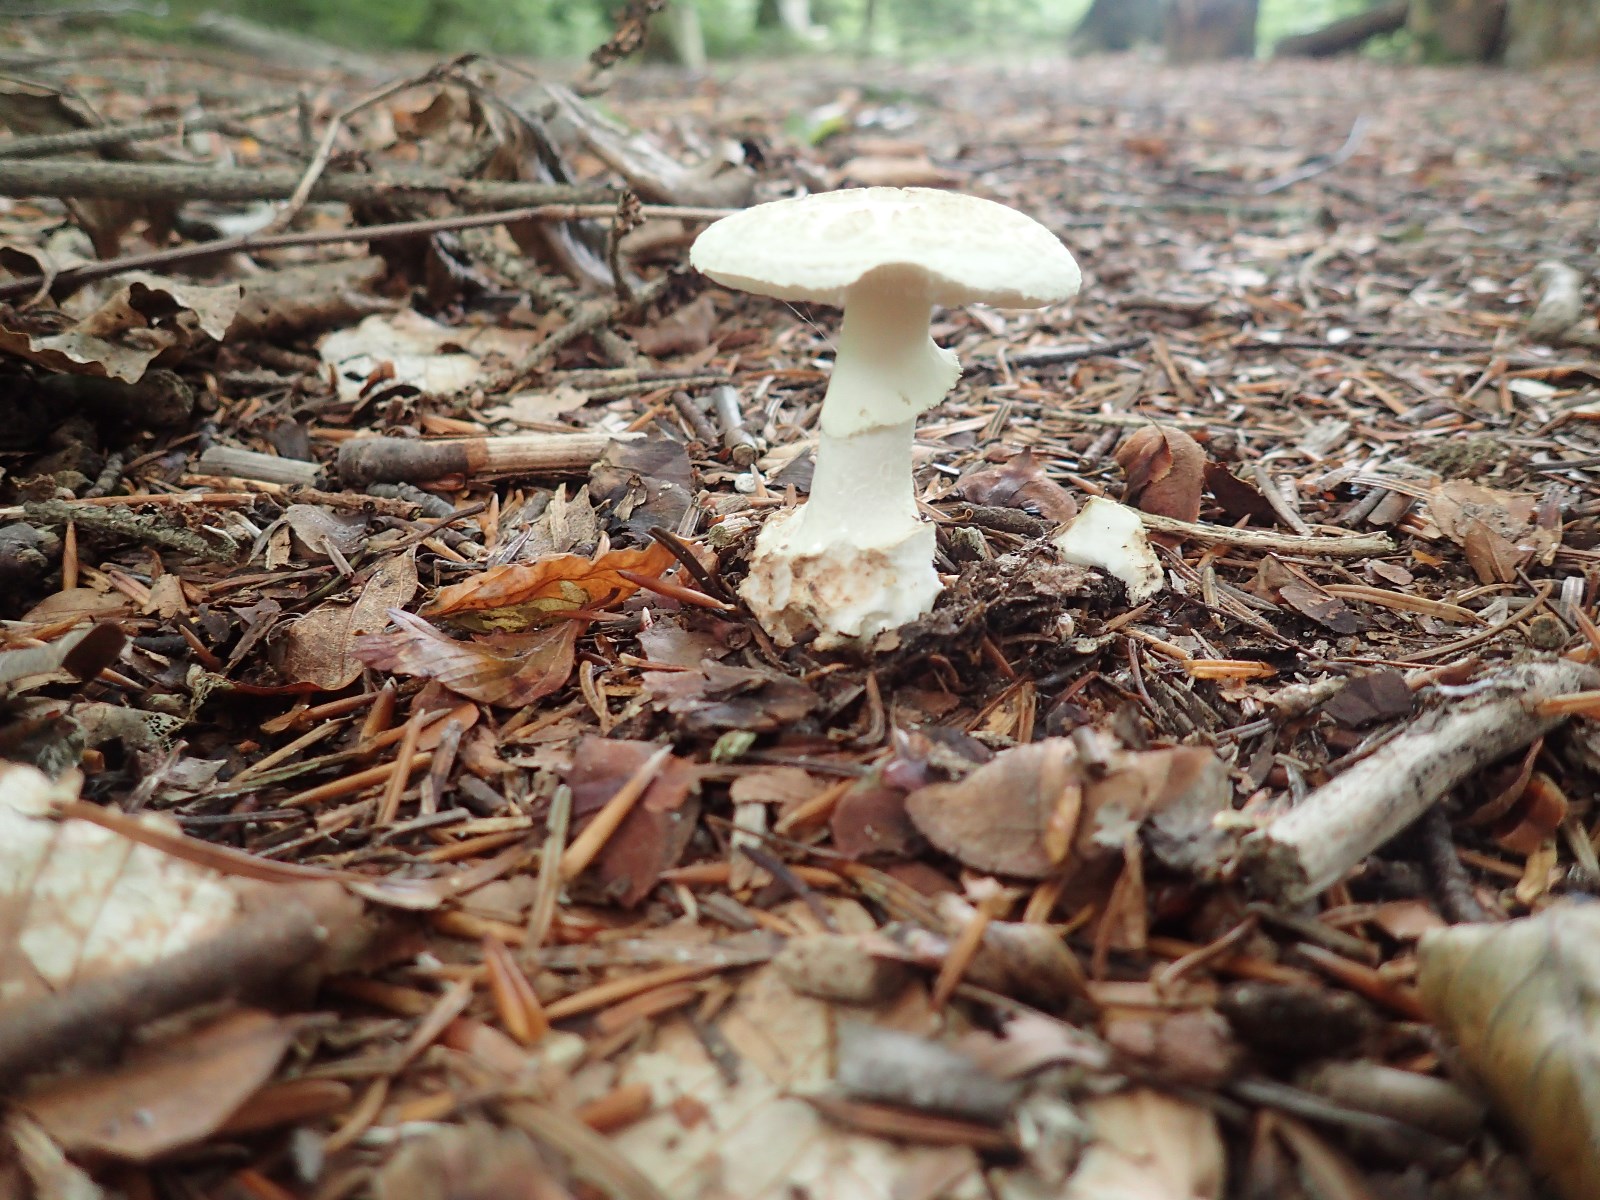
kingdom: Fungi
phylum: Basidiomycota
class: Agaricomycetes
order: Agaricales
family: Amanitaceae
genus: Amanita
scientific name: Amanita citrina
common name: kugleknoldet fluesvamp
